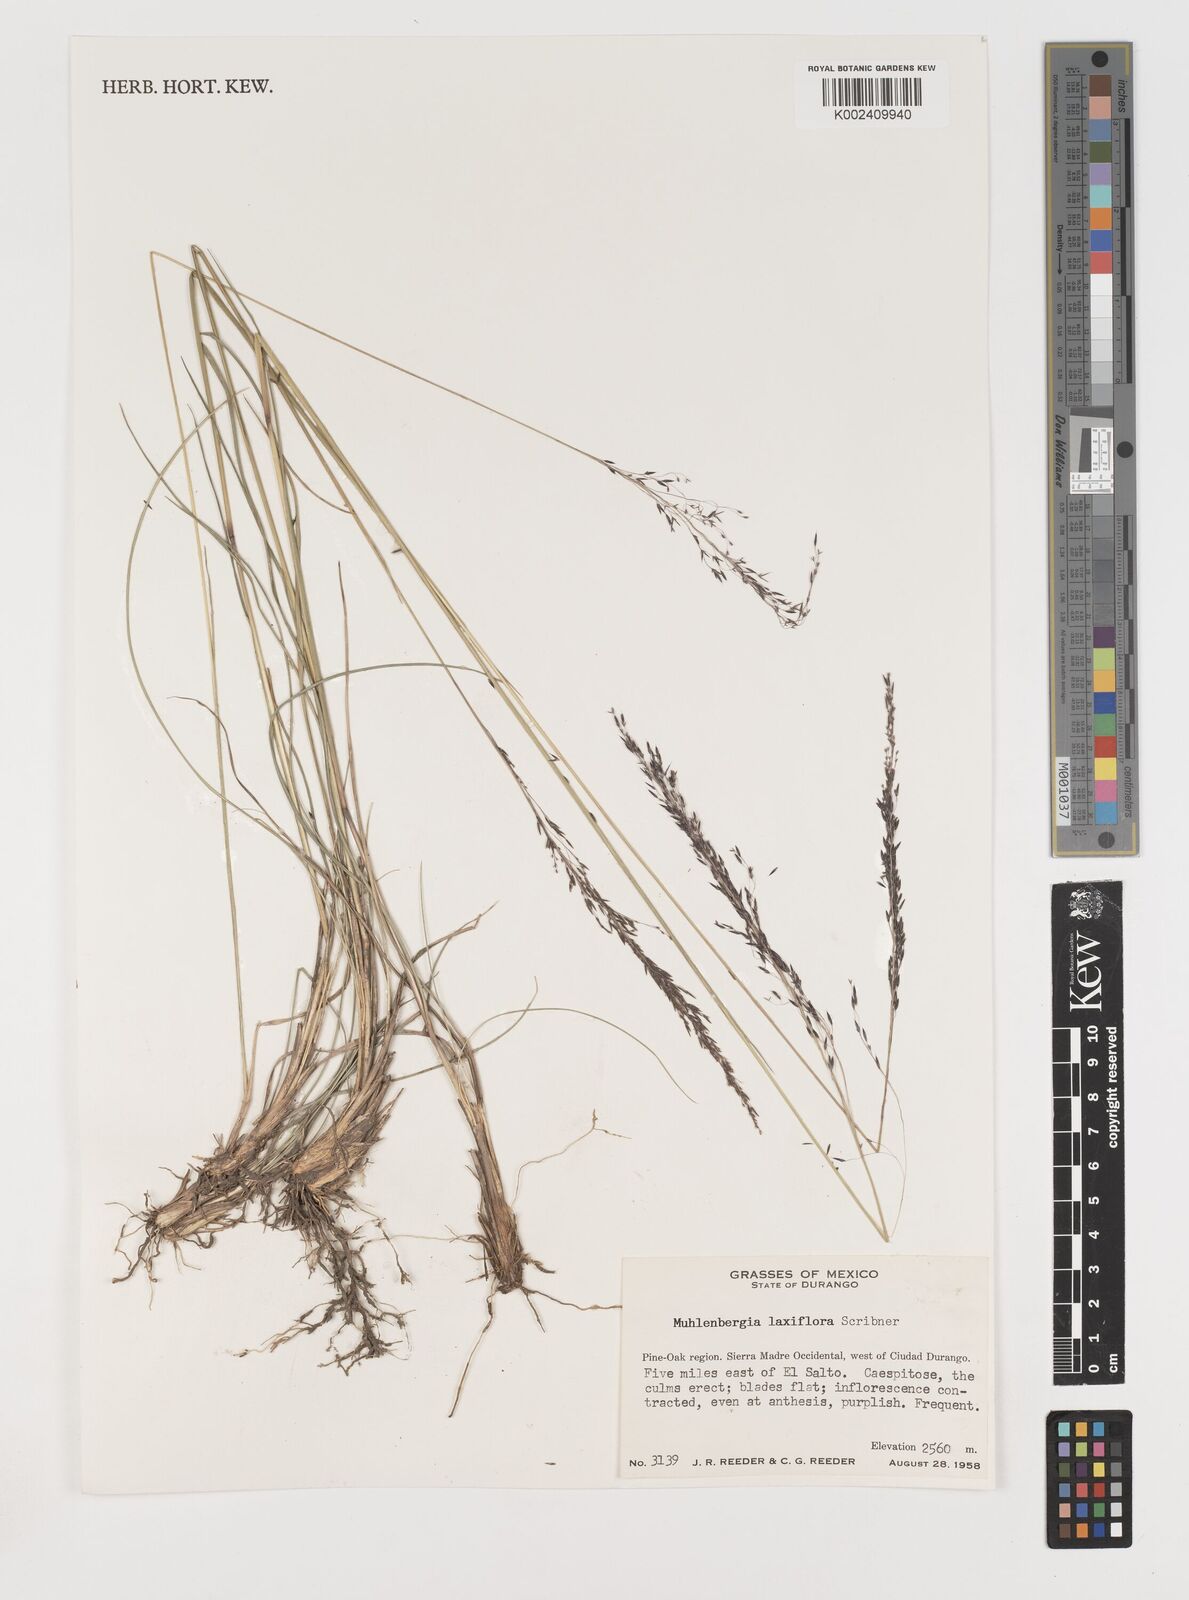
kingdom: Plantae
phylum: Tracheophyta
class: Liliopsida
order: Poales
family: Poaceae
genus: Muhlenbergia
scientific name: Muhlenbergia mucronata
